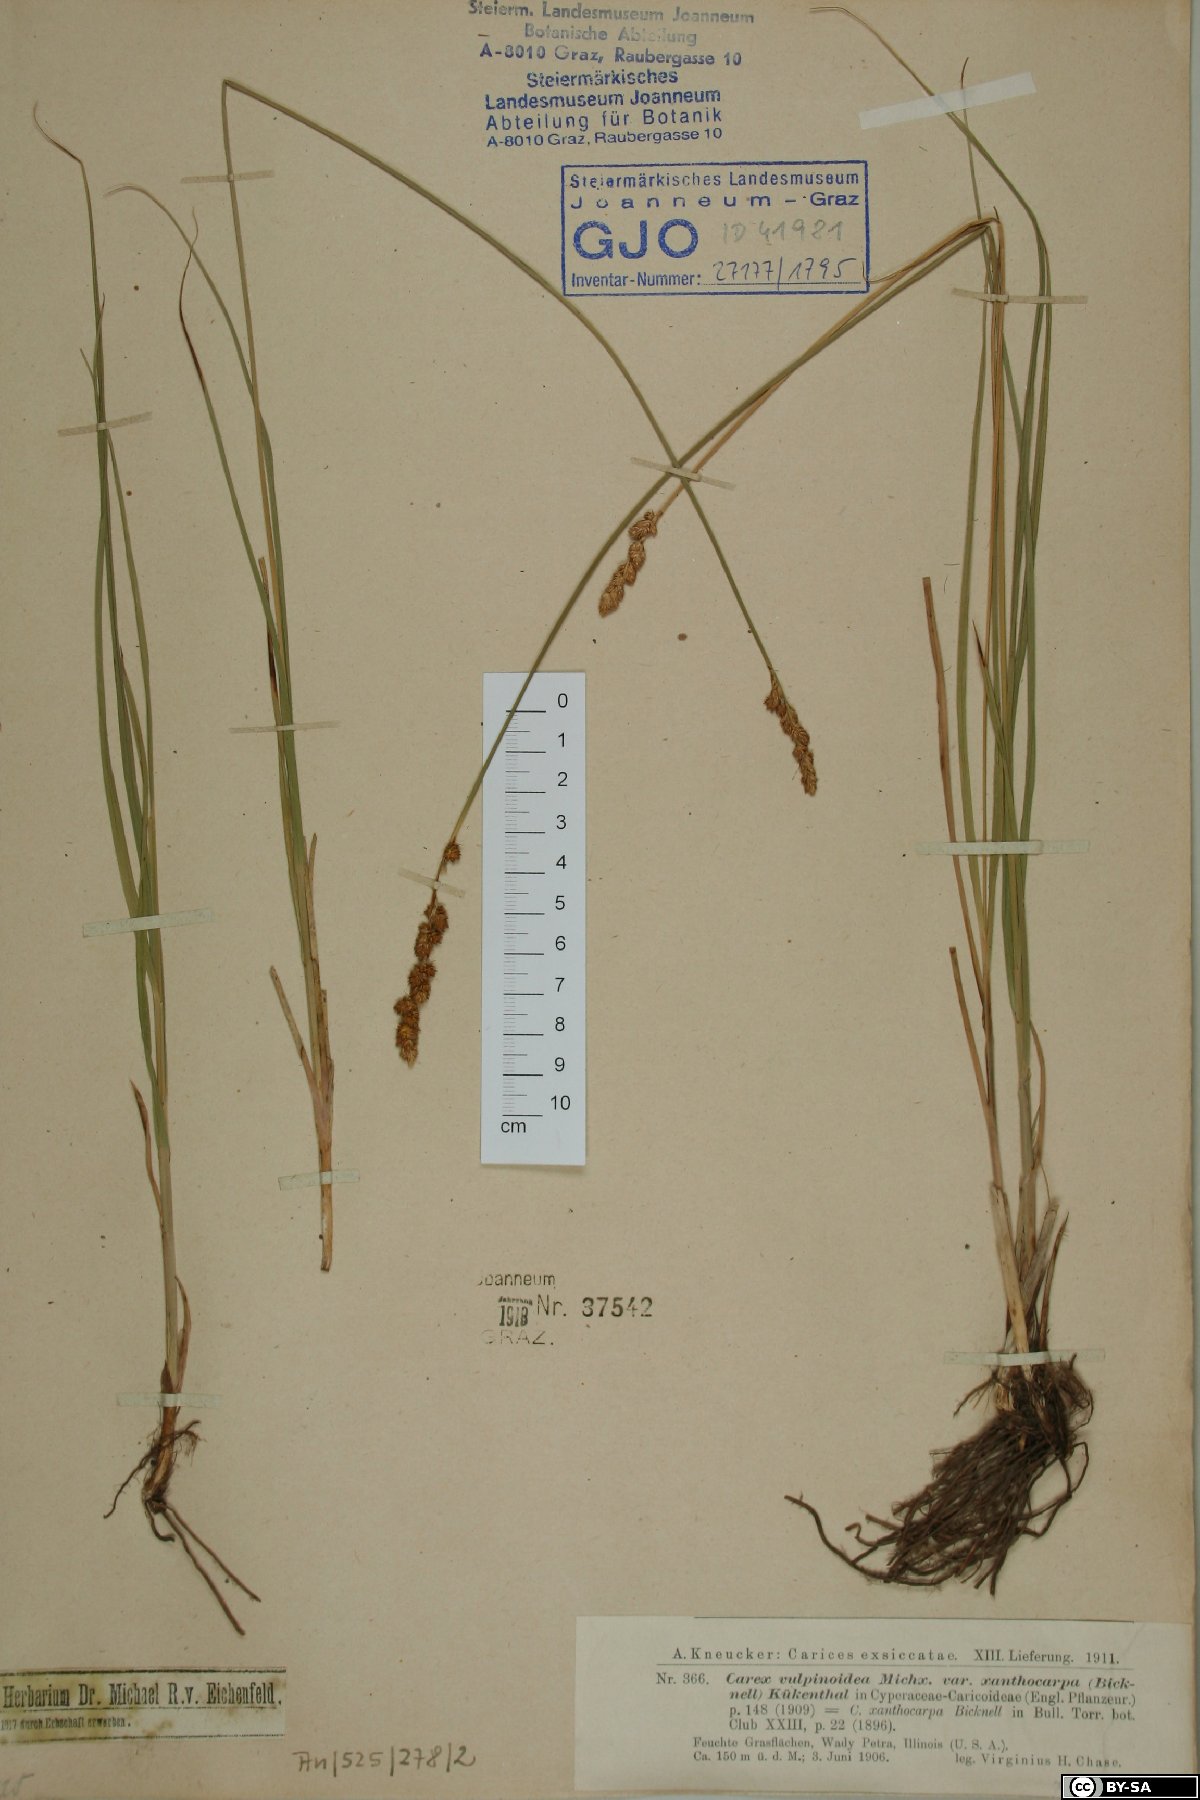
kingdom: Plantae
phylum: Tracheophyta
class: Liliopsida
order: Poales
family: Cyperaceae
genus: Carex
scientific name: Carex annectens
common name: Large fox sedge
